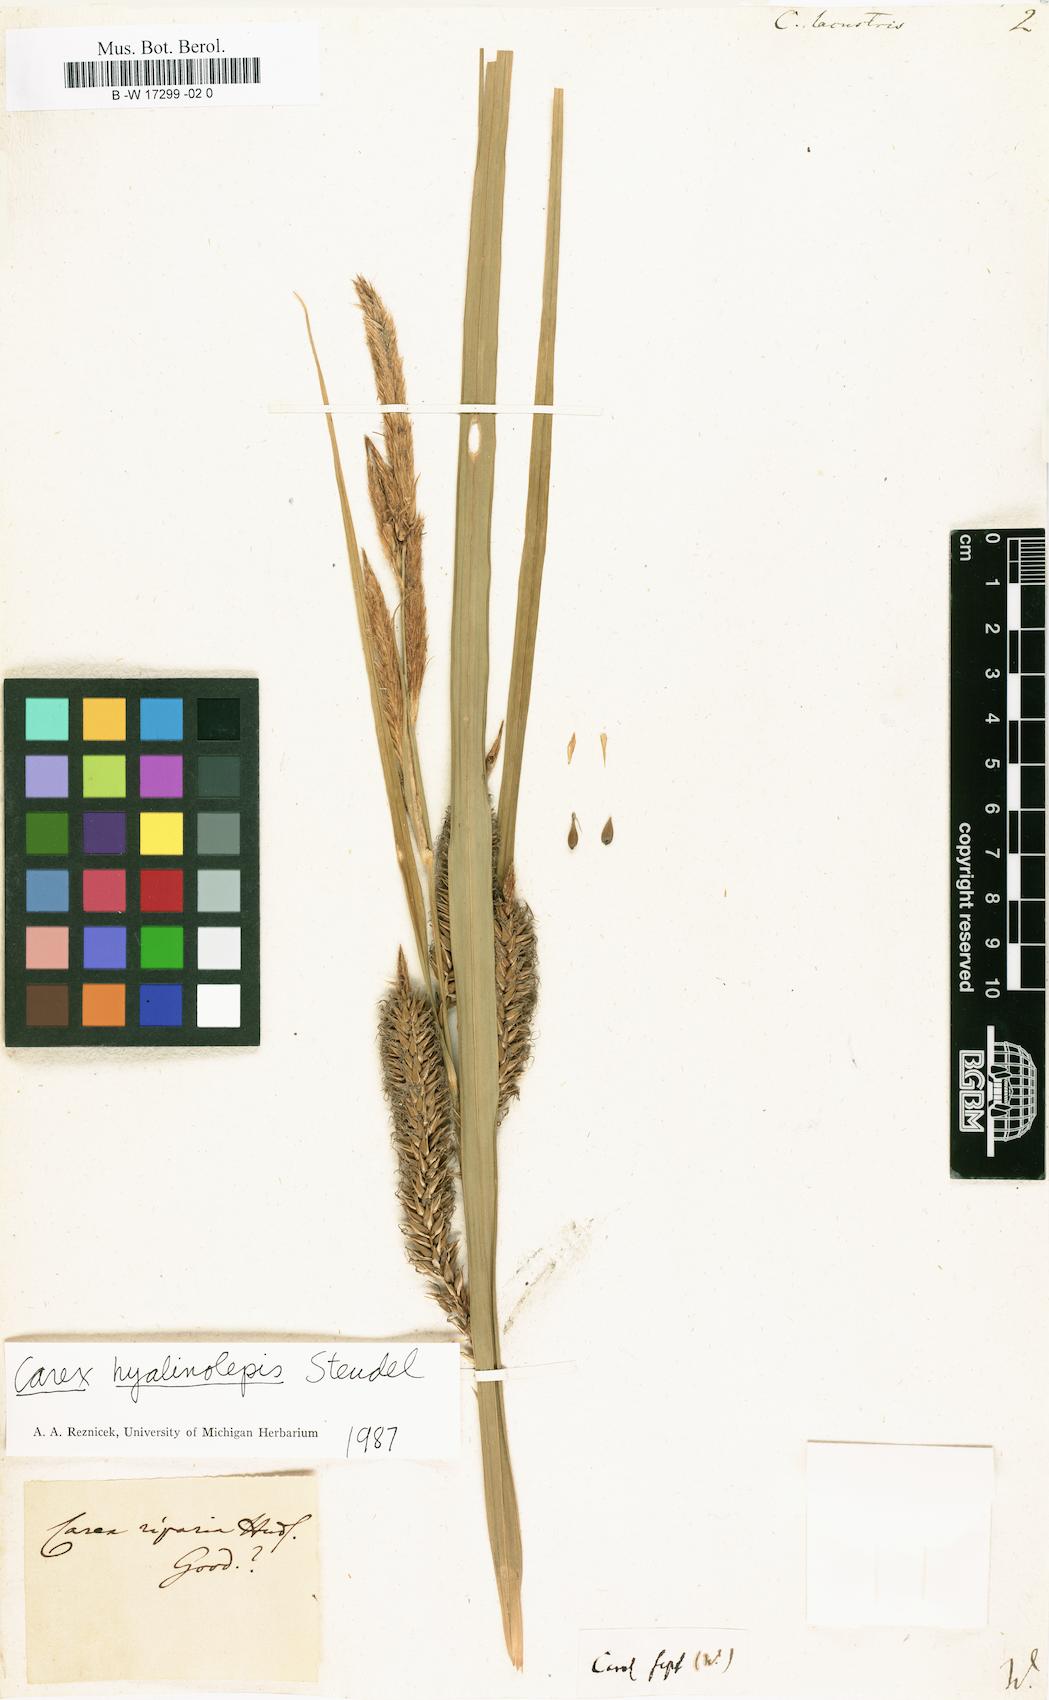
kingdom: Plantae
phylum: Tracheophyta
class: Liliopsida
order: Poales
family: Cyperaceae
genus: Carex
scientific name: Carex lacustris
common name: Common lake sedge
